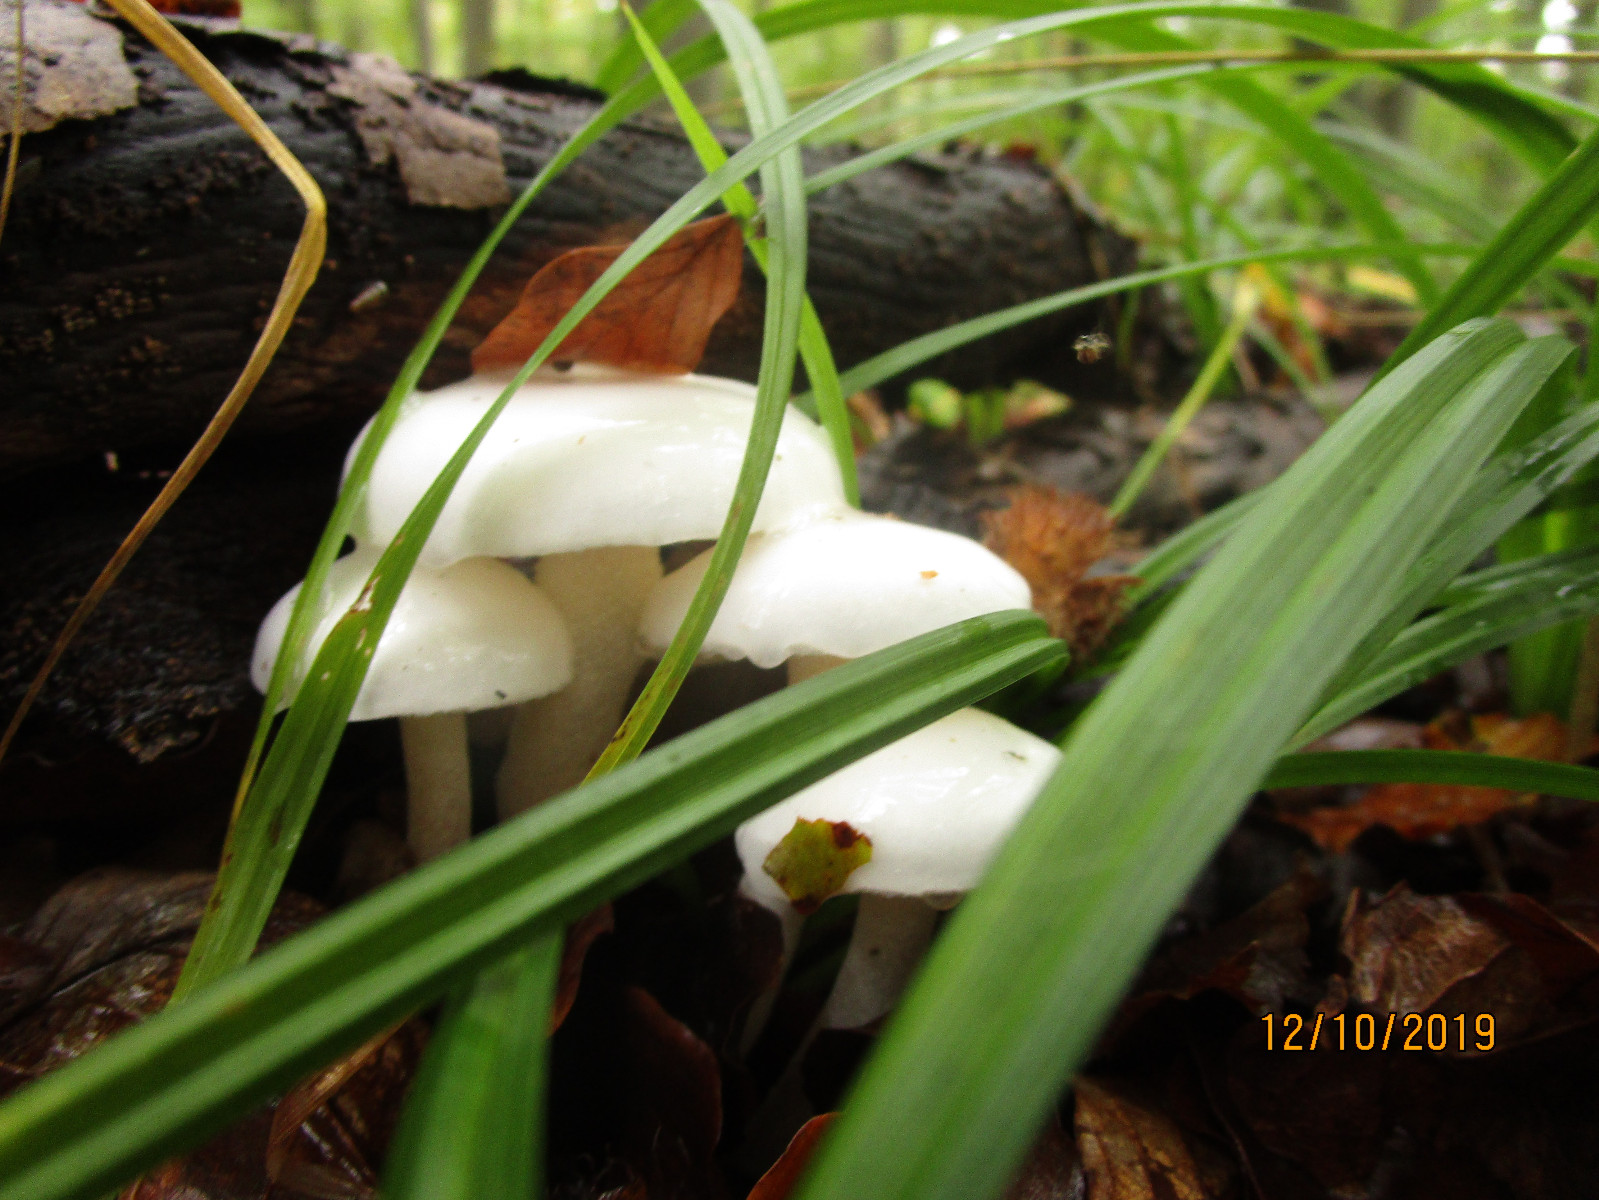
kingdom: Fungi
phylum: Basidiomycota
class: Agaricomycetes
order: Agaricales
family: Physalacriaceae
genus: Mucidula
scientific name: Mucidula mucida
